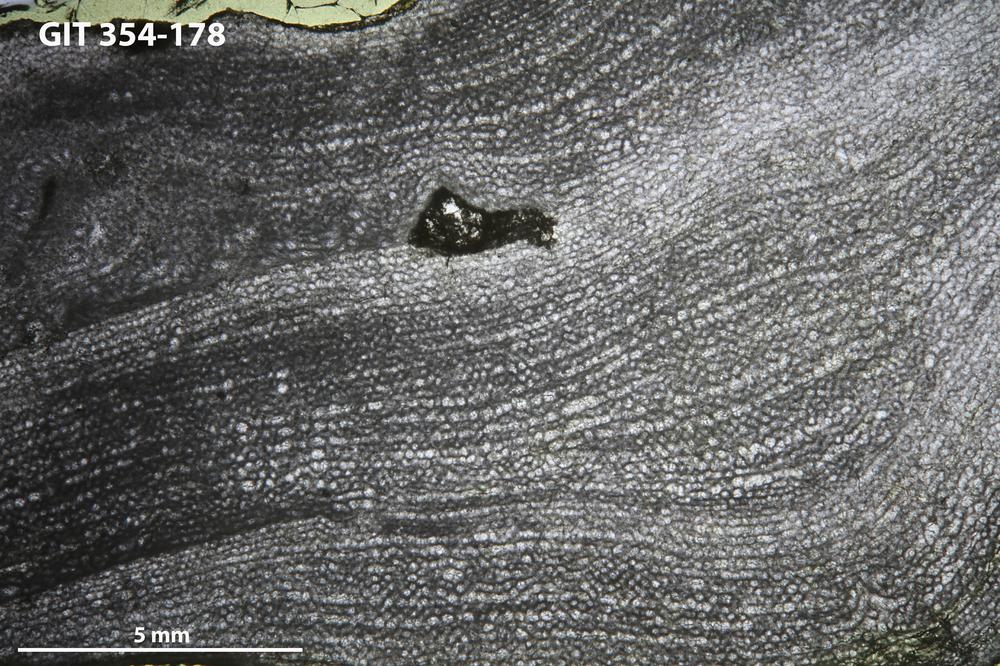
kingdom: Animalia
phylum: Porifera
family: Clathrodictyidae
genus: Clathrodictyon
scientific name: Clathrodictyon boreale
